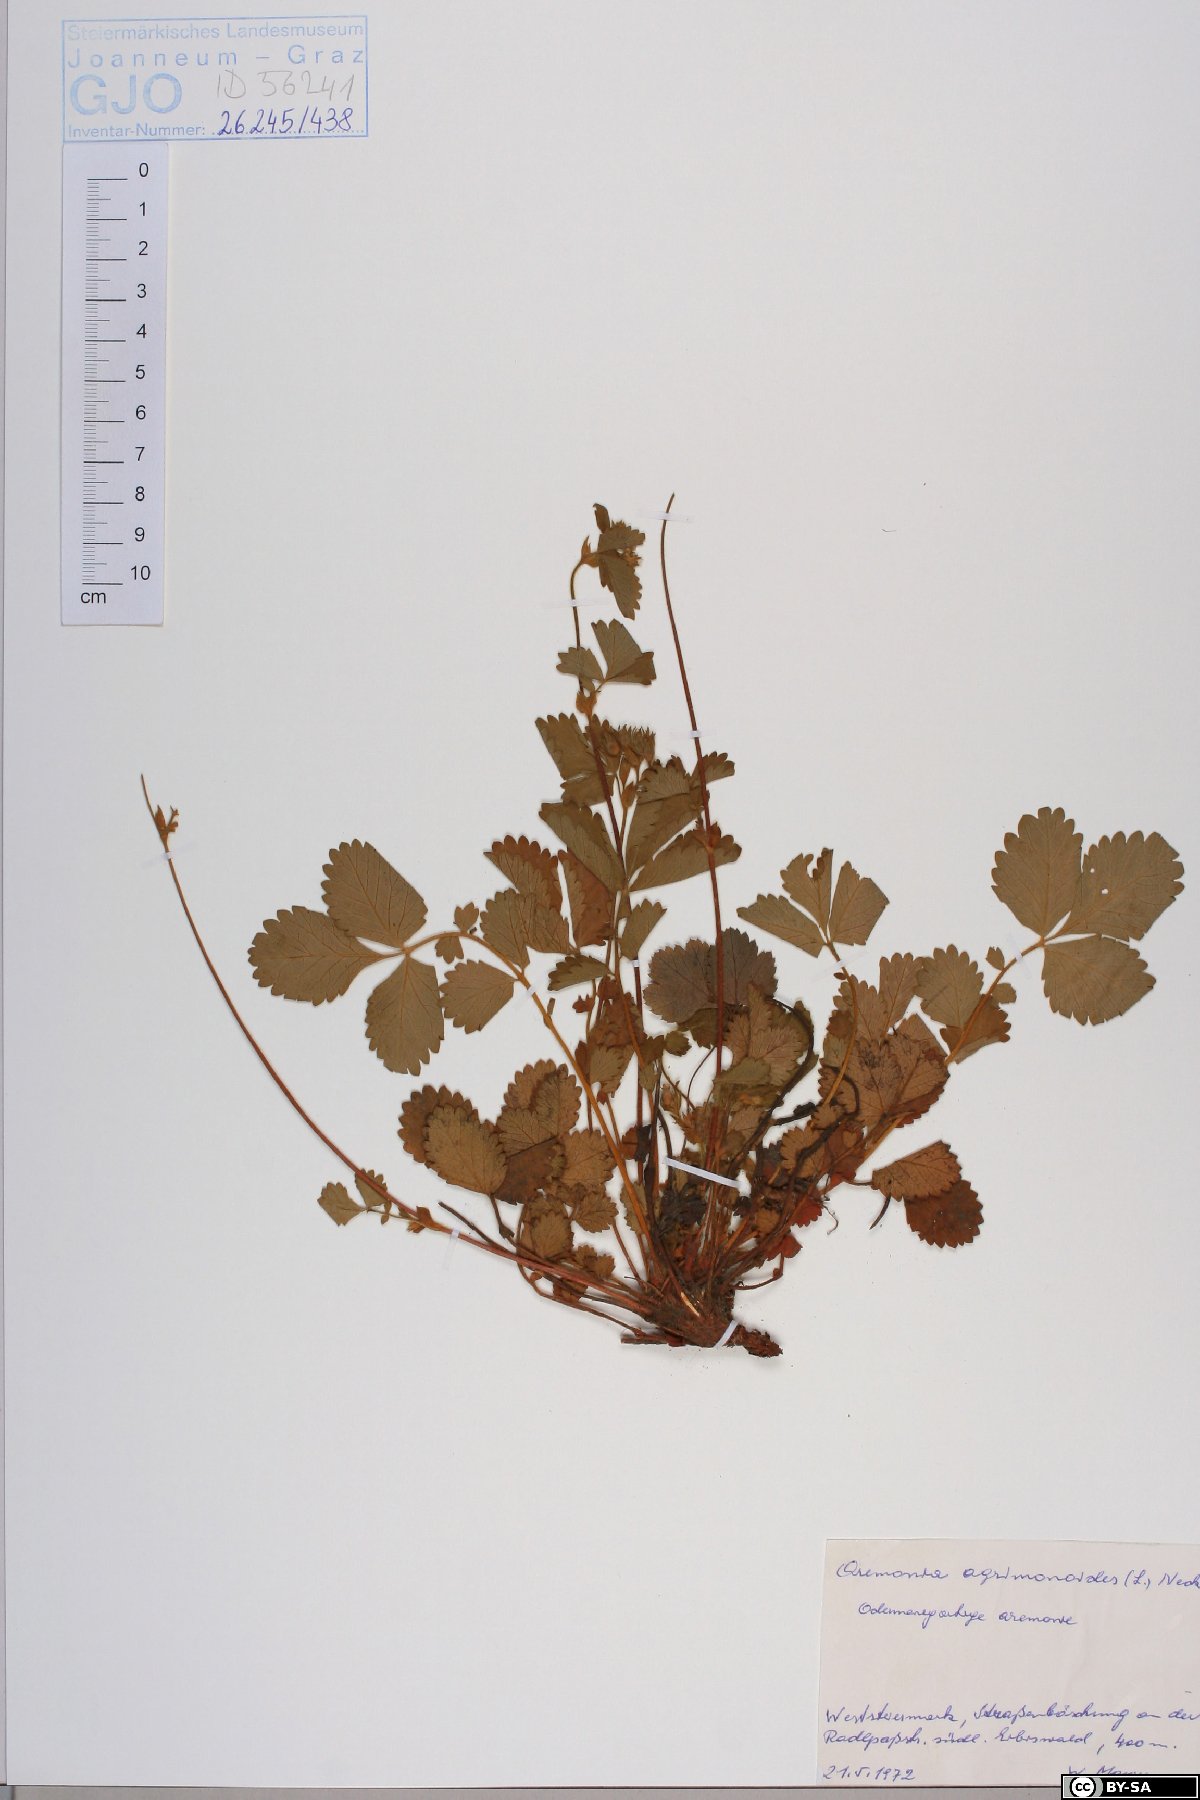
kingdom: Plantae
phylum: Tracheophyta
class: Magnoliopsida
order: Rosales
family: Rosaceae
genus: Aremonia
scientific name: Aremonia agrimonoides
